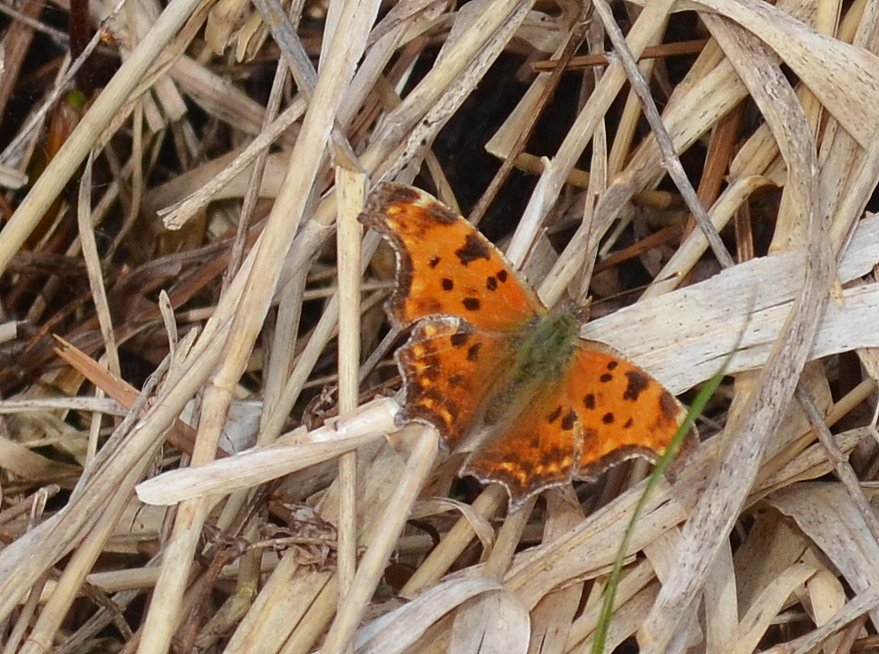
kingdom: Animalia
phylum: Arthropoda
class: Insecta
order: Lepidoptera
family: Nymphalidae
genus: Polygonia
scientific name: Polygonia comma
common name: Eastern Comma
